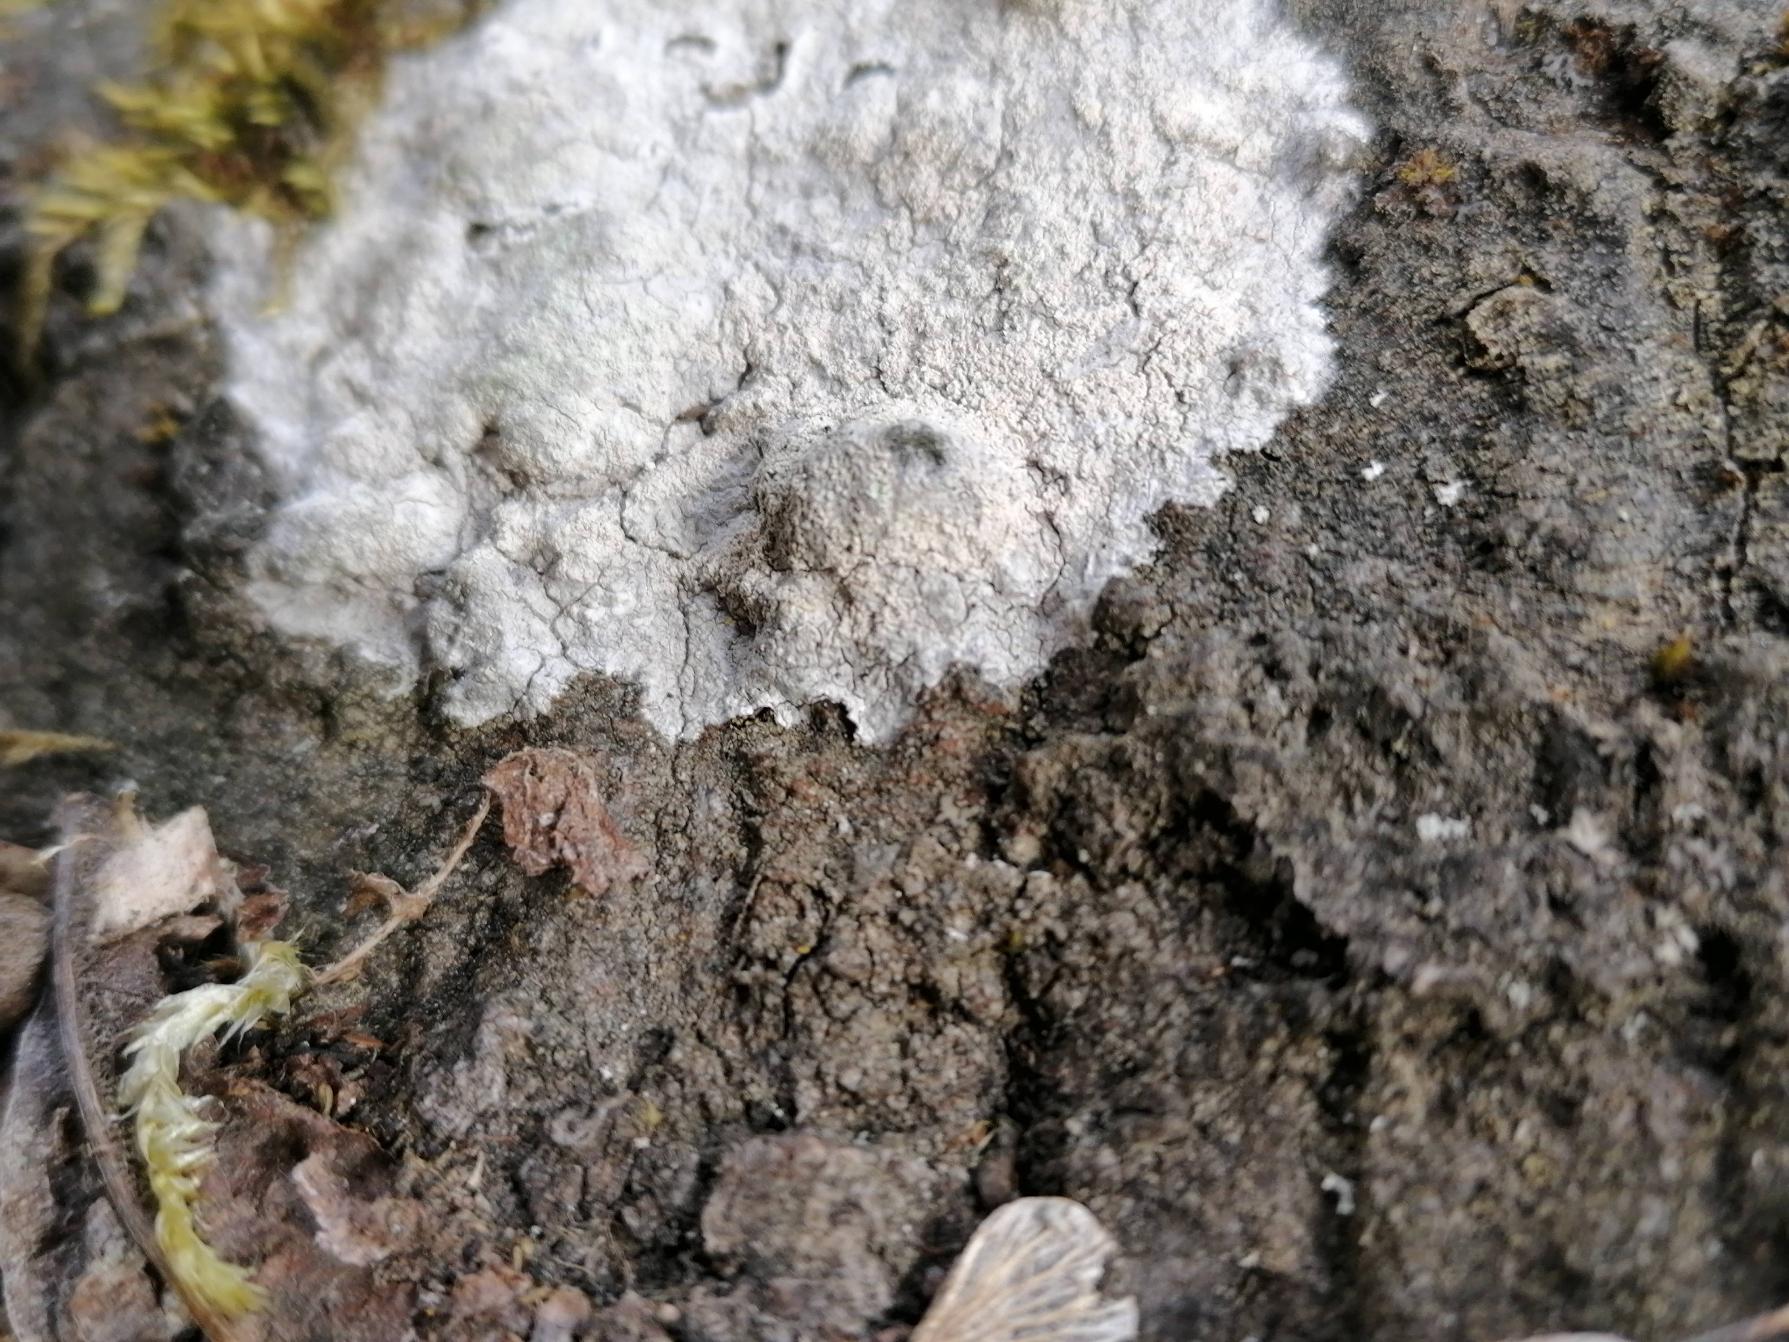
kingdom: Fungi
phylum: Ascomycota
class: Lecanoromycetes
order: Ostropales
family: Phlyctidaceae
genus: Phlyctis
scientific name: Phlyctis argena
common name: Almindelig sølvlav
